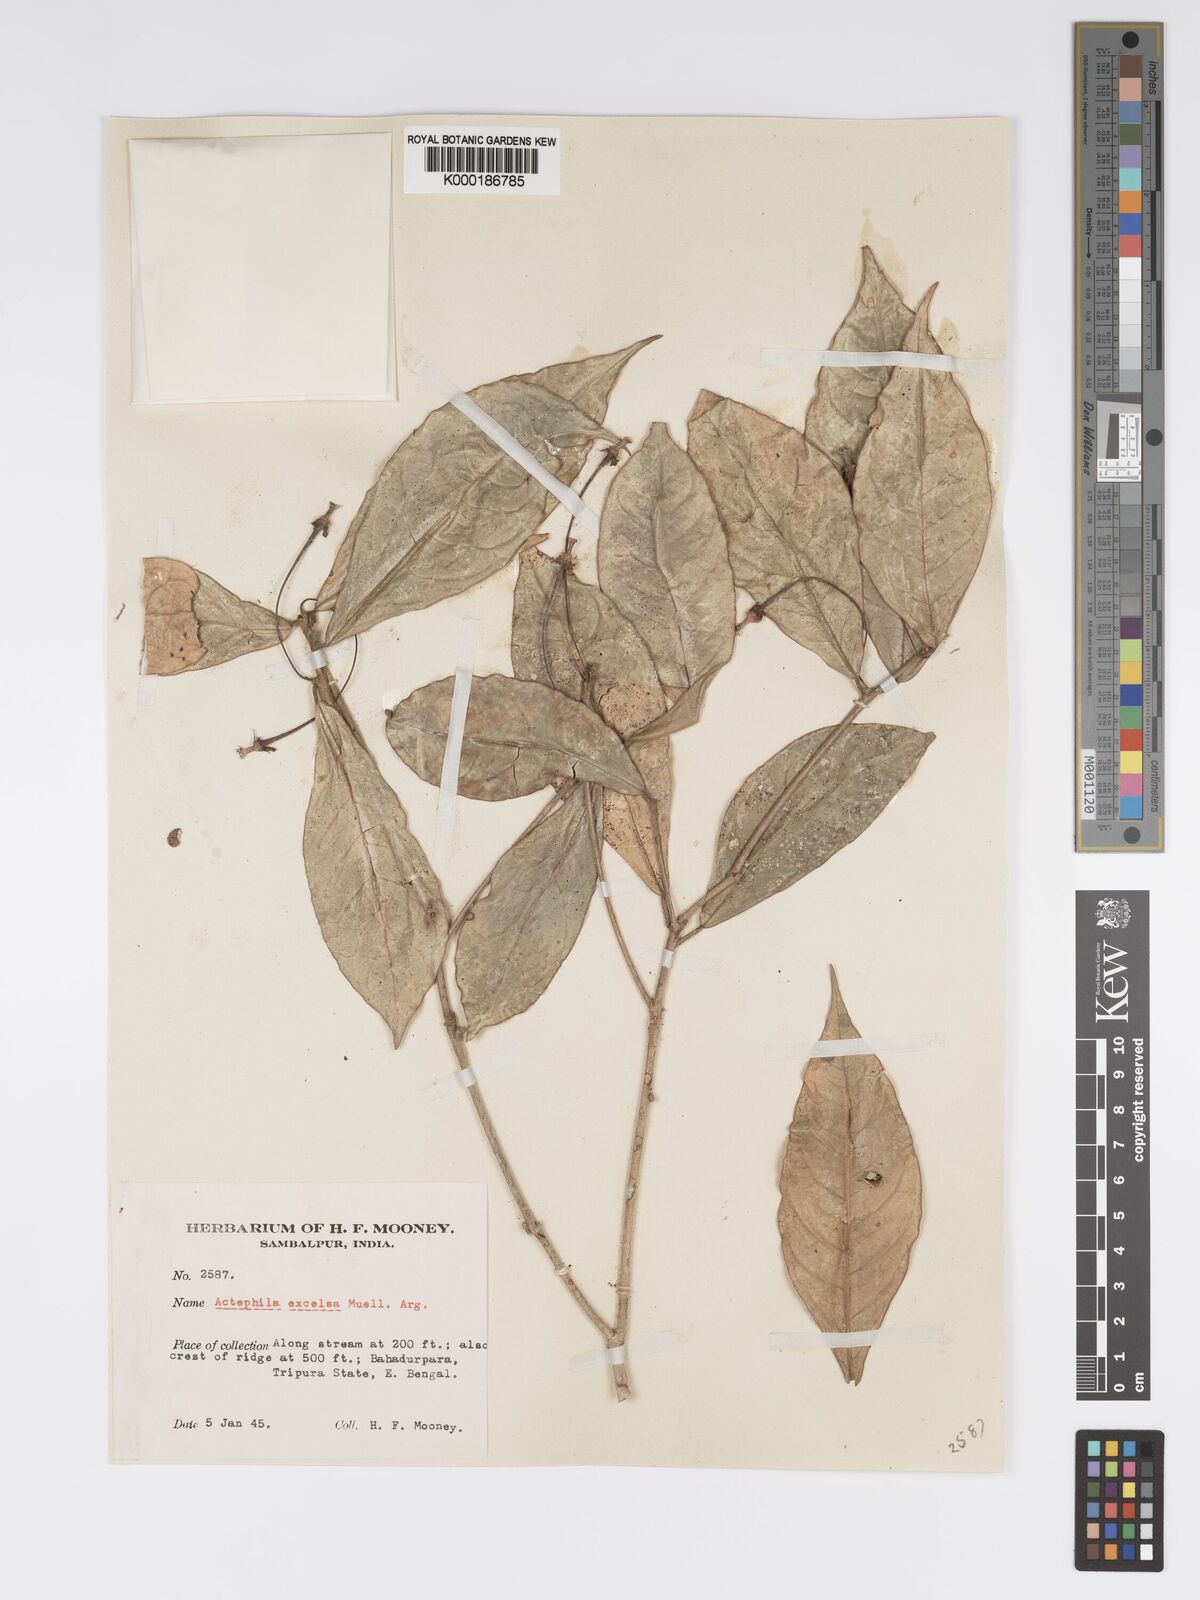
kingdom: Plantae
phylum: Tracheophyta
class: Magnoliopsida
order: Malpighiales
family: Phyllanthaceae
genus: Actephila
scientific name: Actephila excelsa
